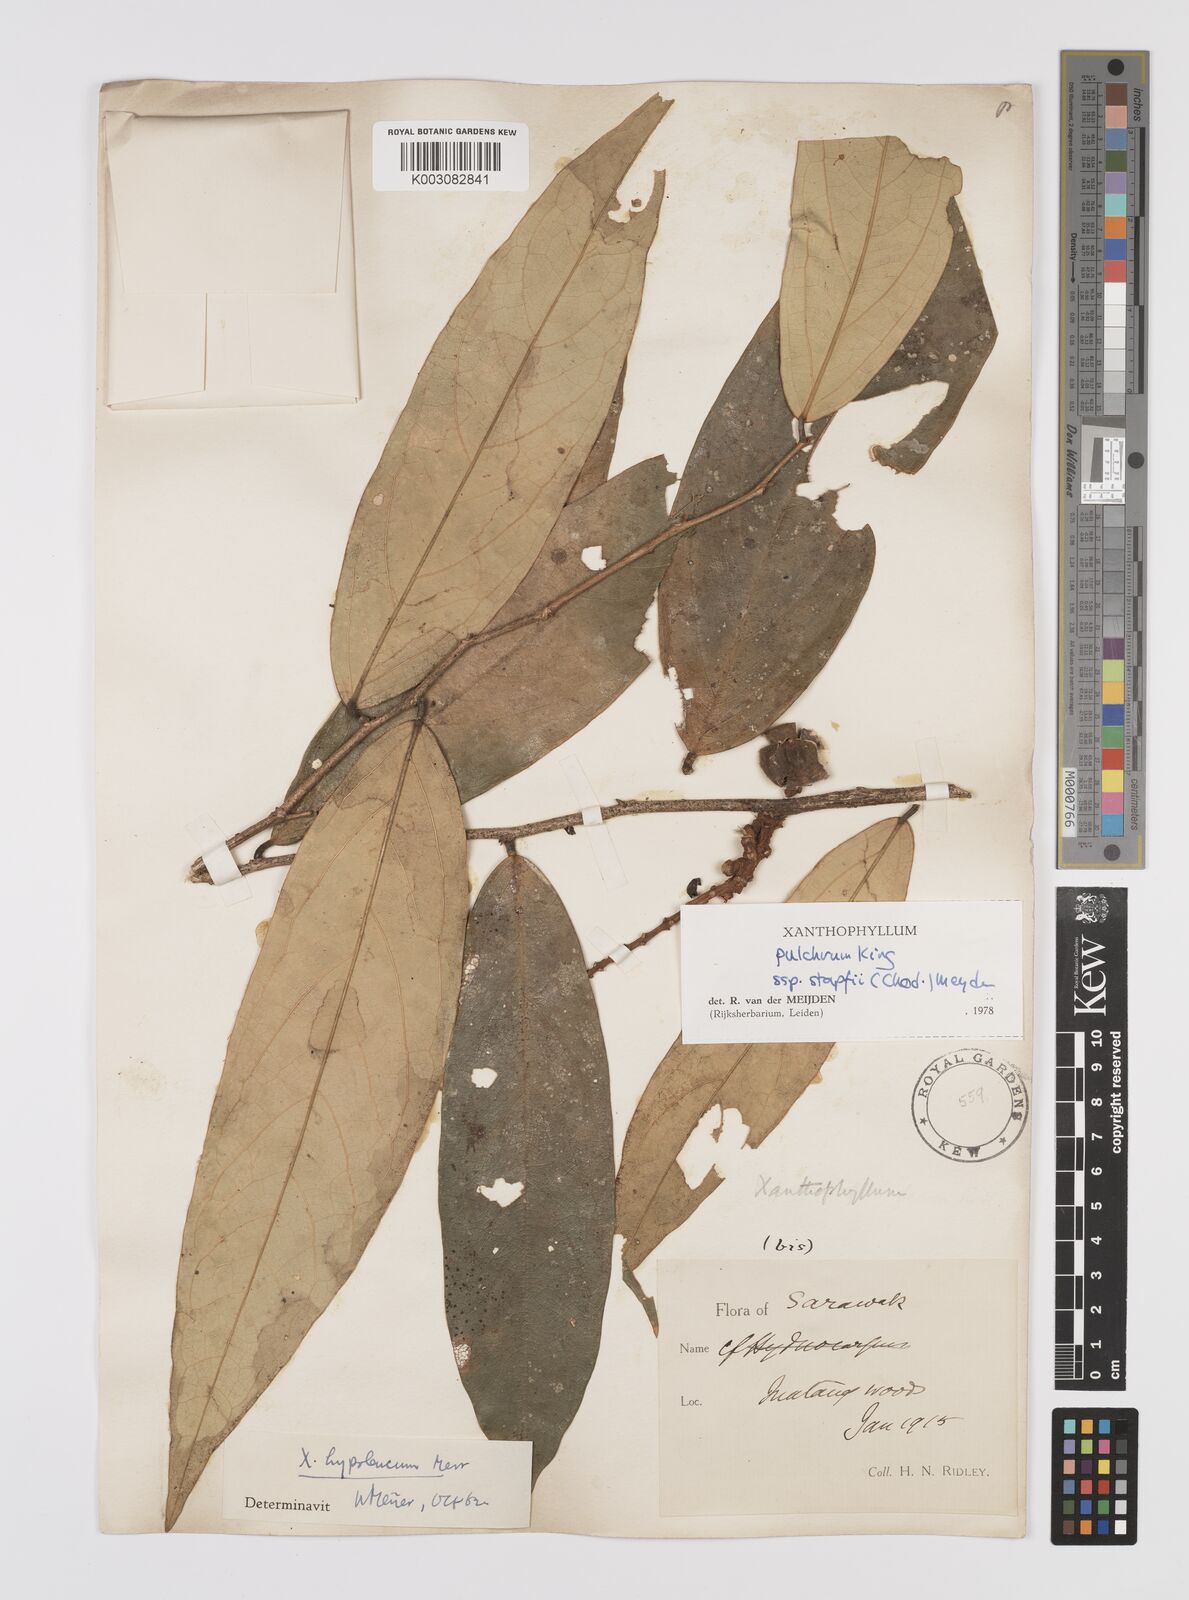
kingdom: Plantae
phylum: Tracheophyta
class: Magnoliopsida
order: Fabales
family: Polygalaceae
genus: Xanthophyllum
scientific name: Xanthophyllum pulchrum
